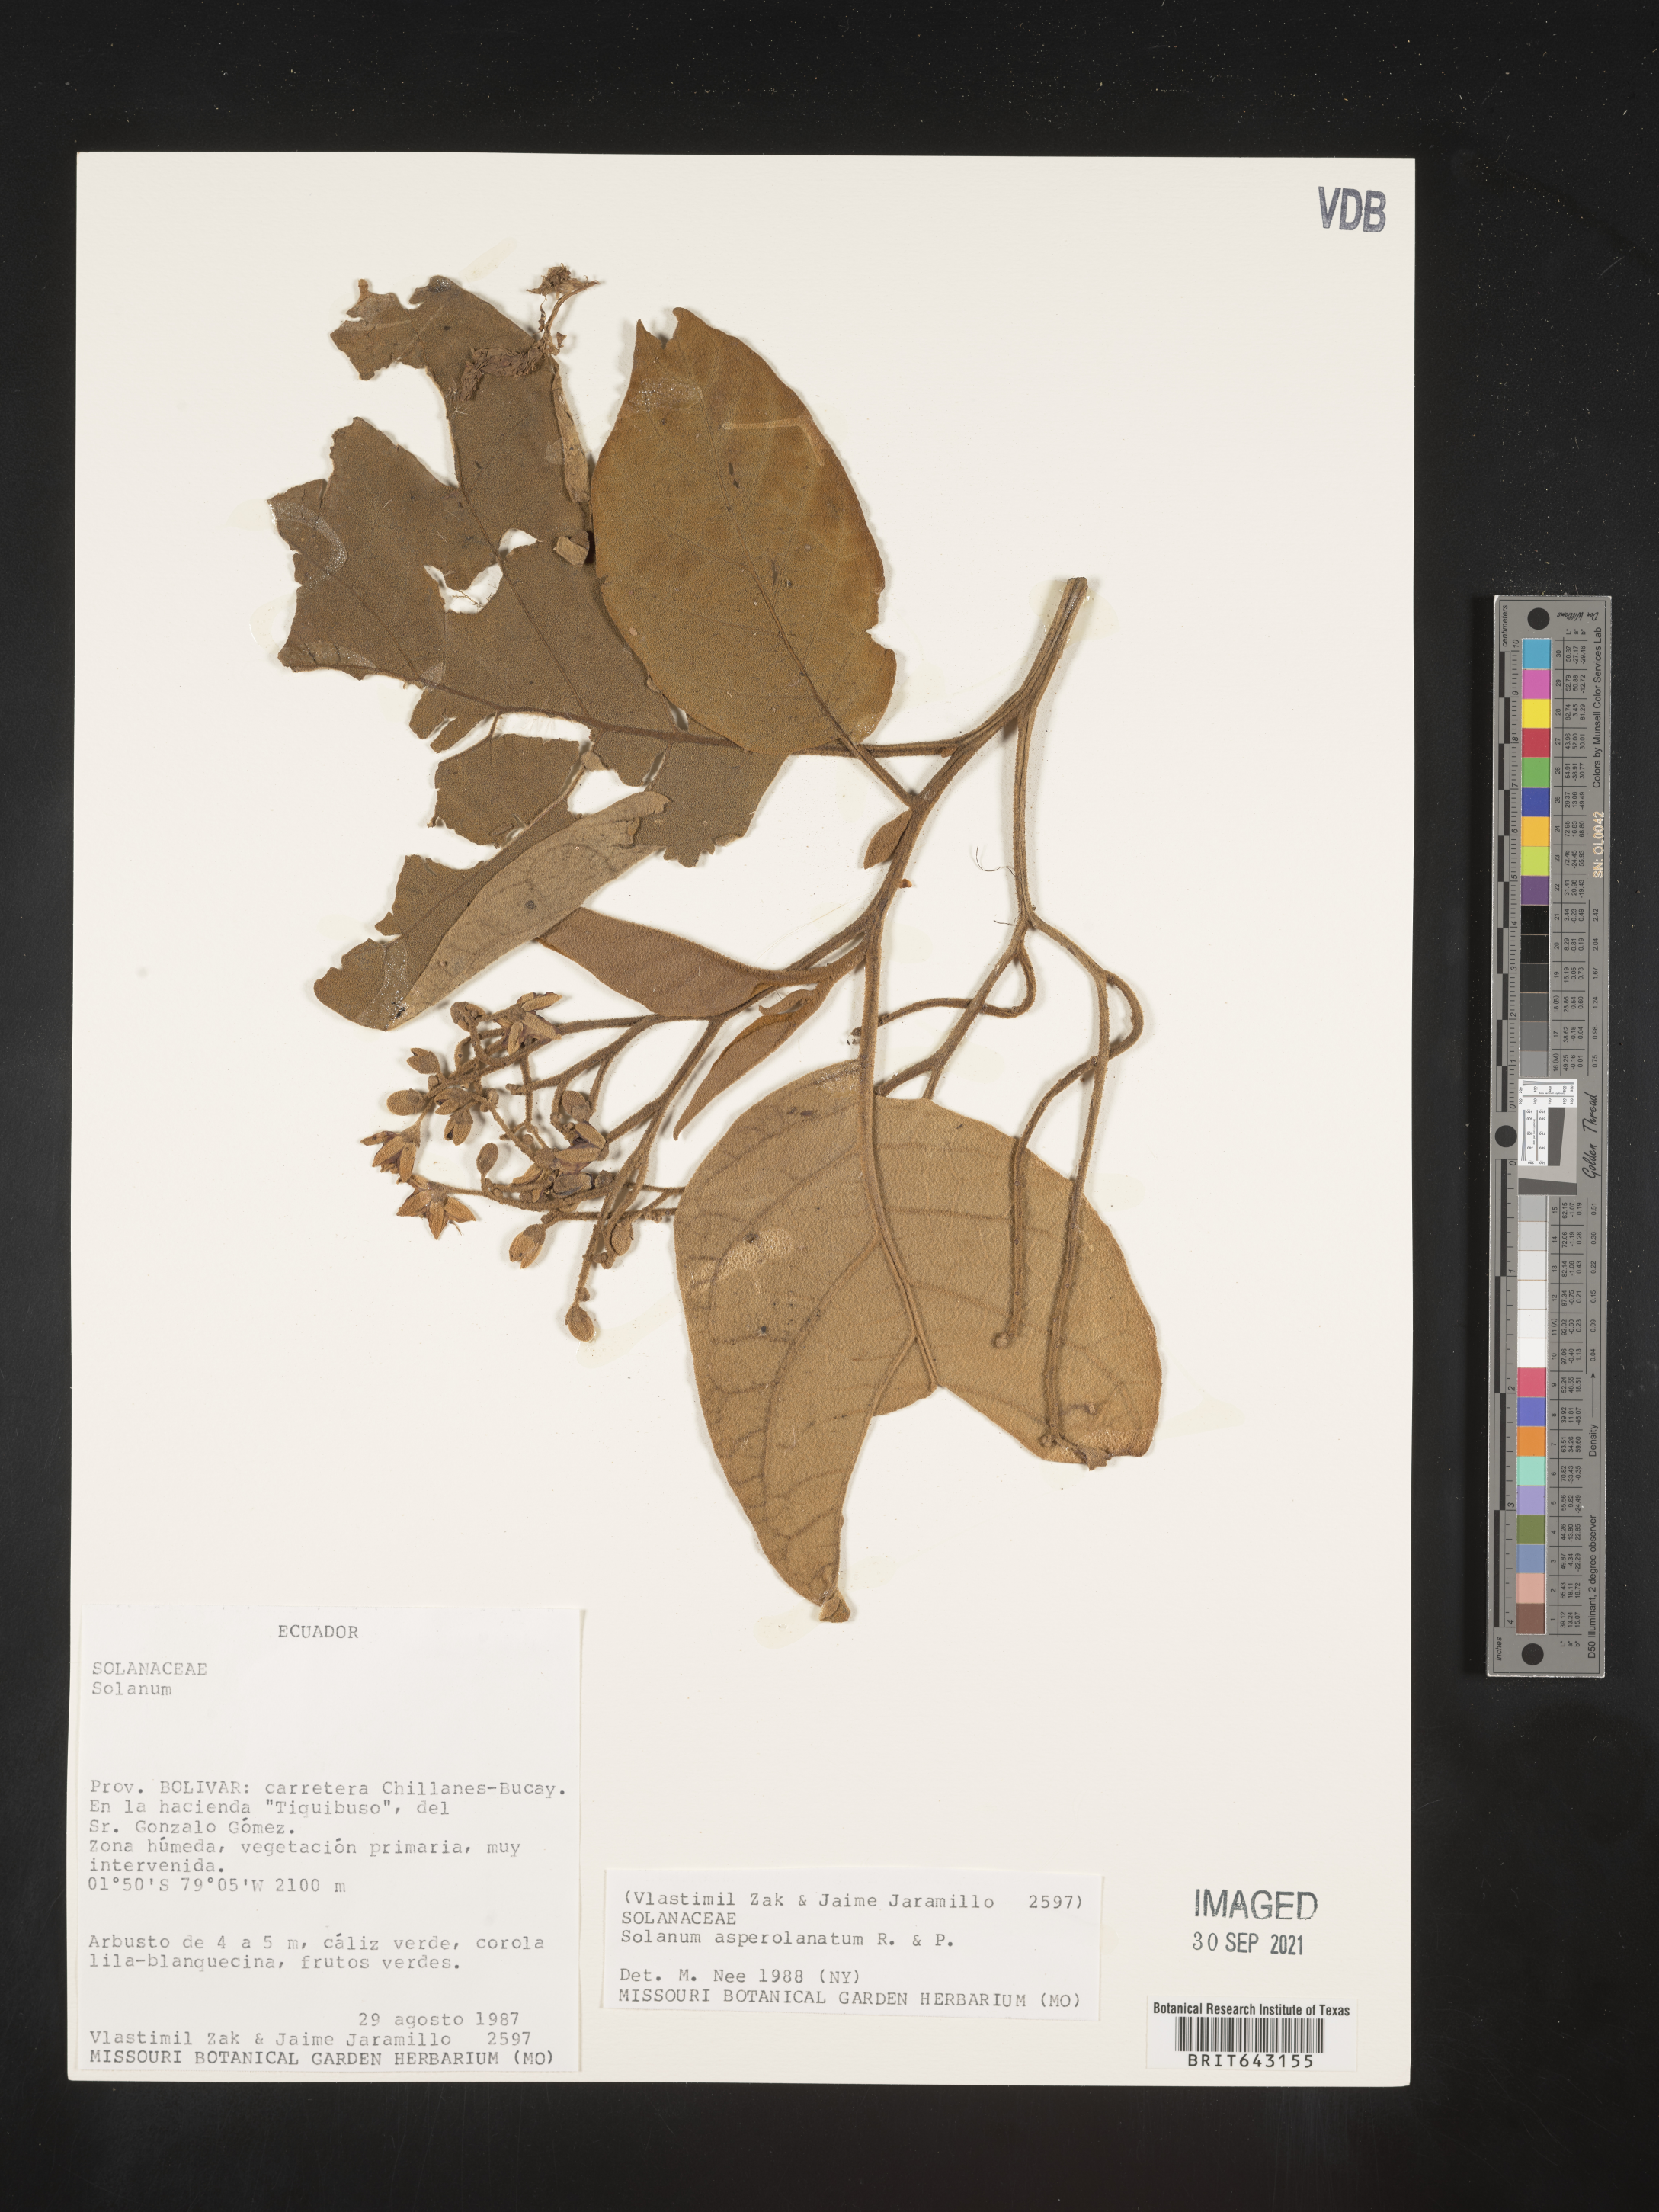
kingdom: Plantae
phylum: Tracheophyta
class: Magnoliopsida
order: Solanales
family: Solanaceae
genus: Solanum
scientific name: Solanum
